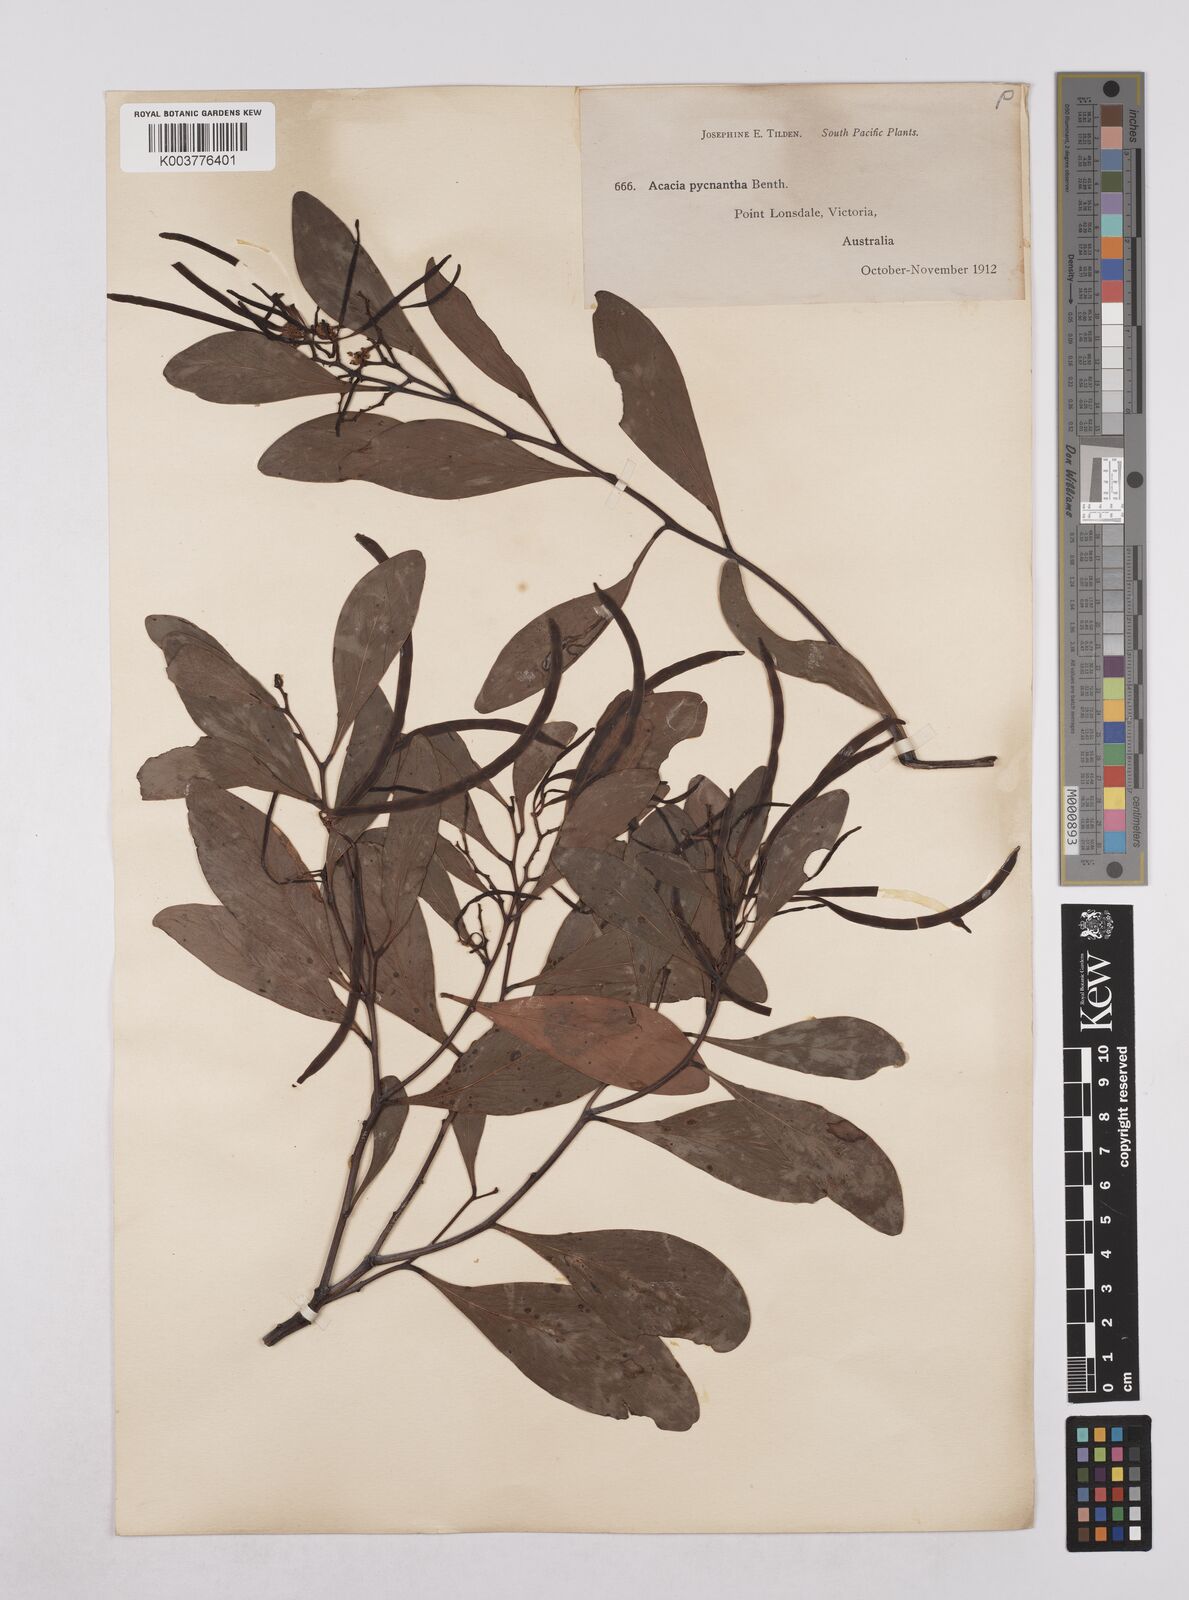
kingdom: Plantae
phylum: Tracheophyta
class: Magnoliopsida
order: Fabales
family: Fabaceae
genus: Acacia
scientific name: Acacia pycnantha
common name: Golden wattle
